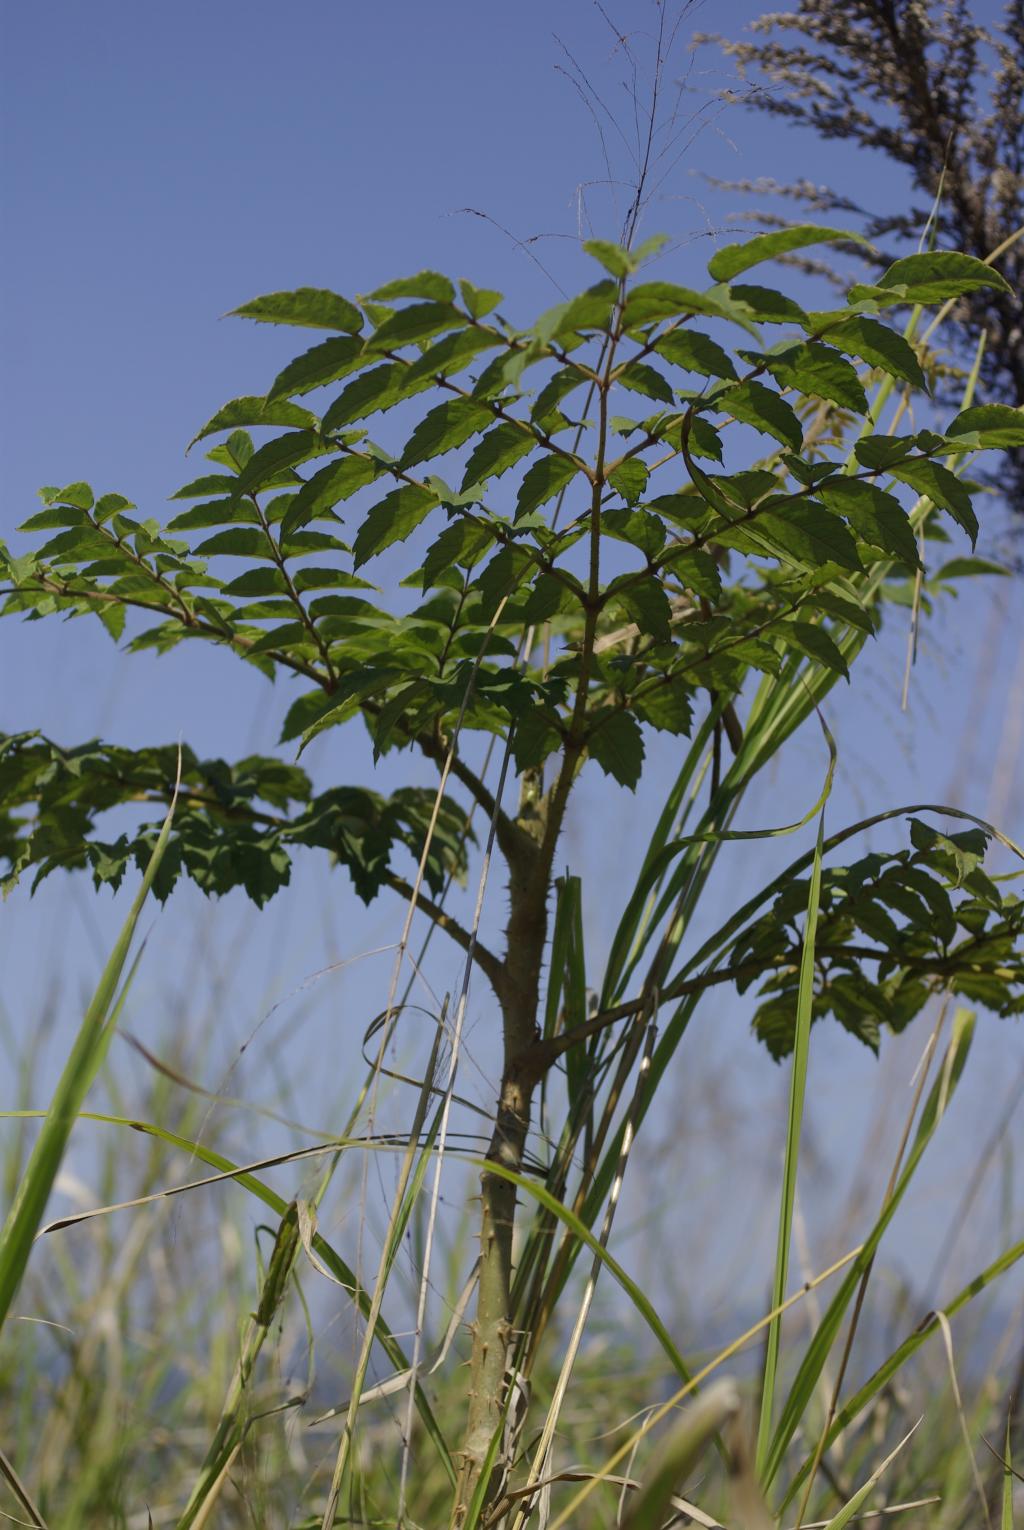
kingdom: Plantae
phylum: Tracheophyta
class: Magnoliopsida
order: Apiales
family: Araliaceae
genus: Aralia
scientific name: Aralia decaisneana
